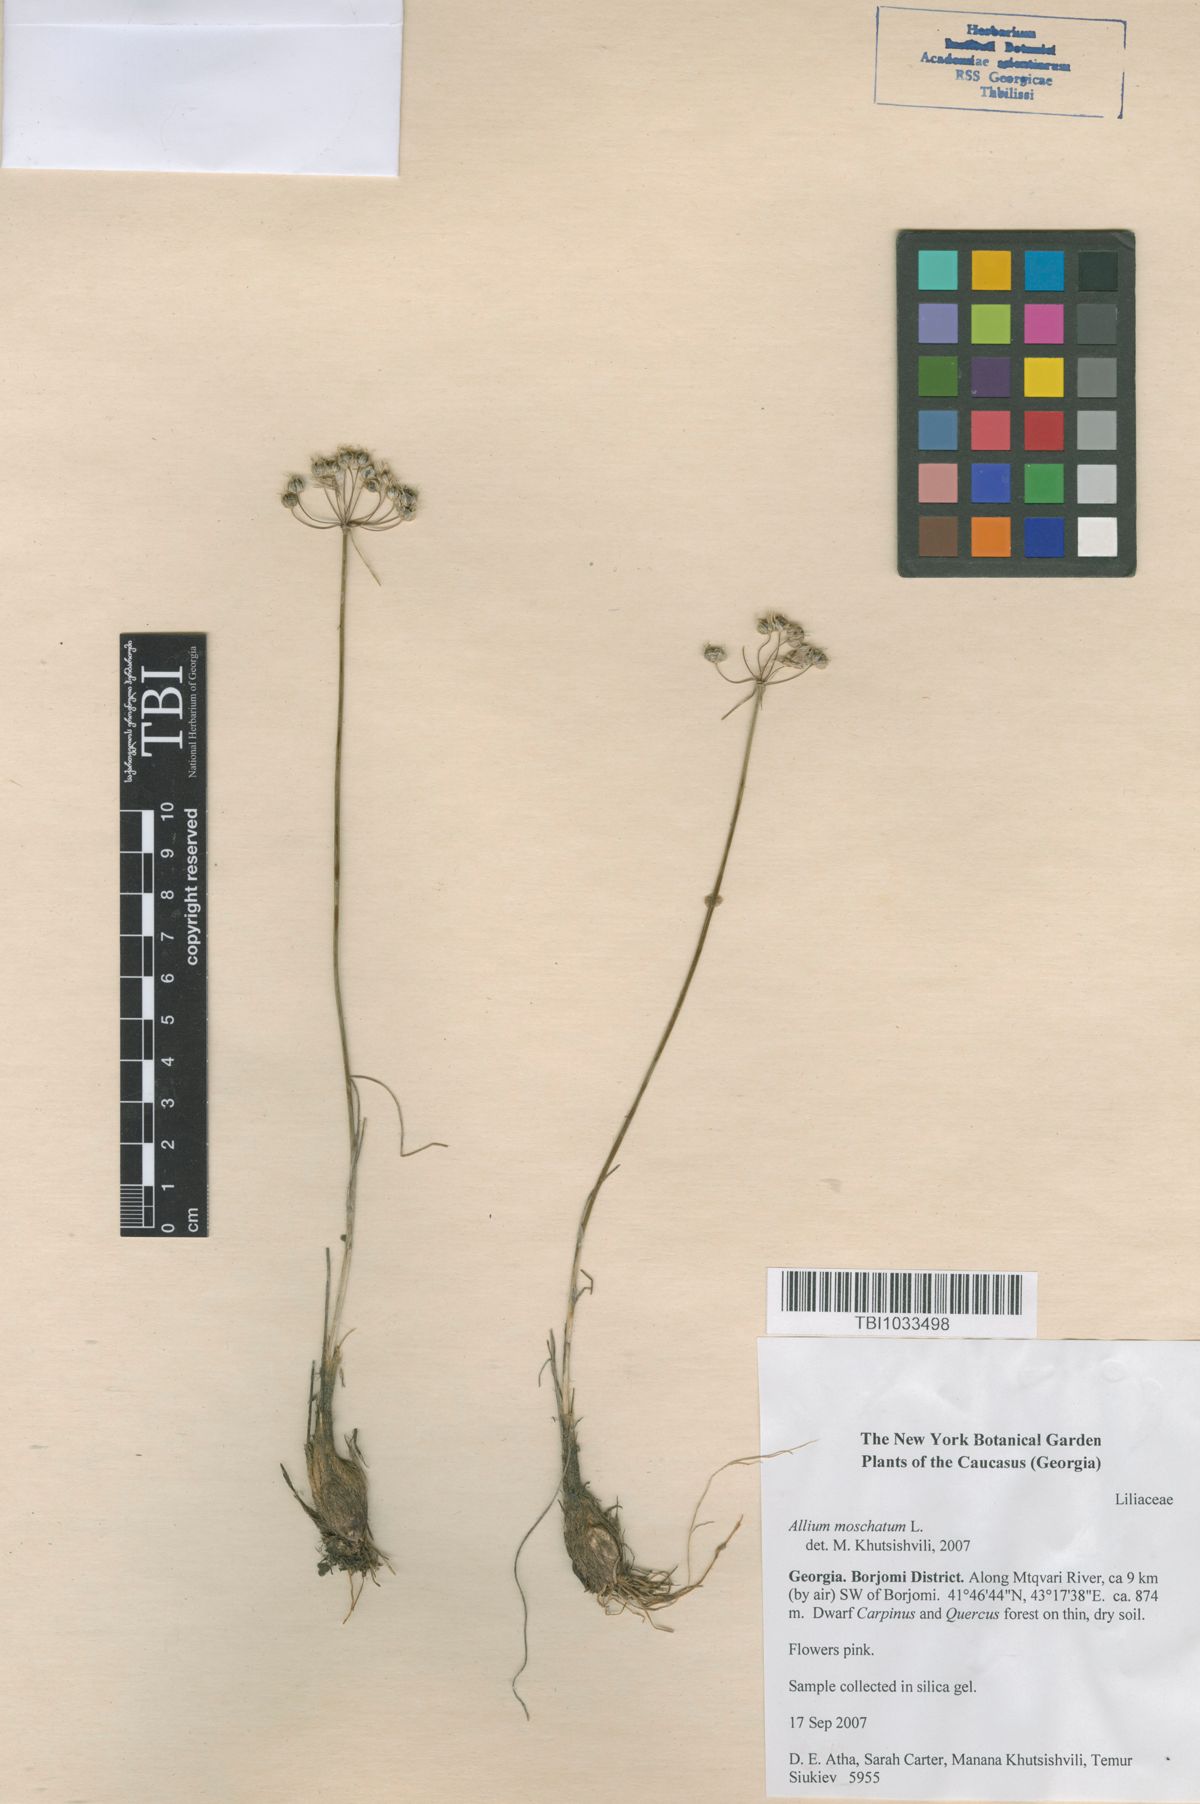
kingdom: Plantae
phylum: Tracheophyta
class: Liliopsida
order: Asparagales
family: Amaryllidaceae
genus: Allium
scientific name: Allium moschatum
